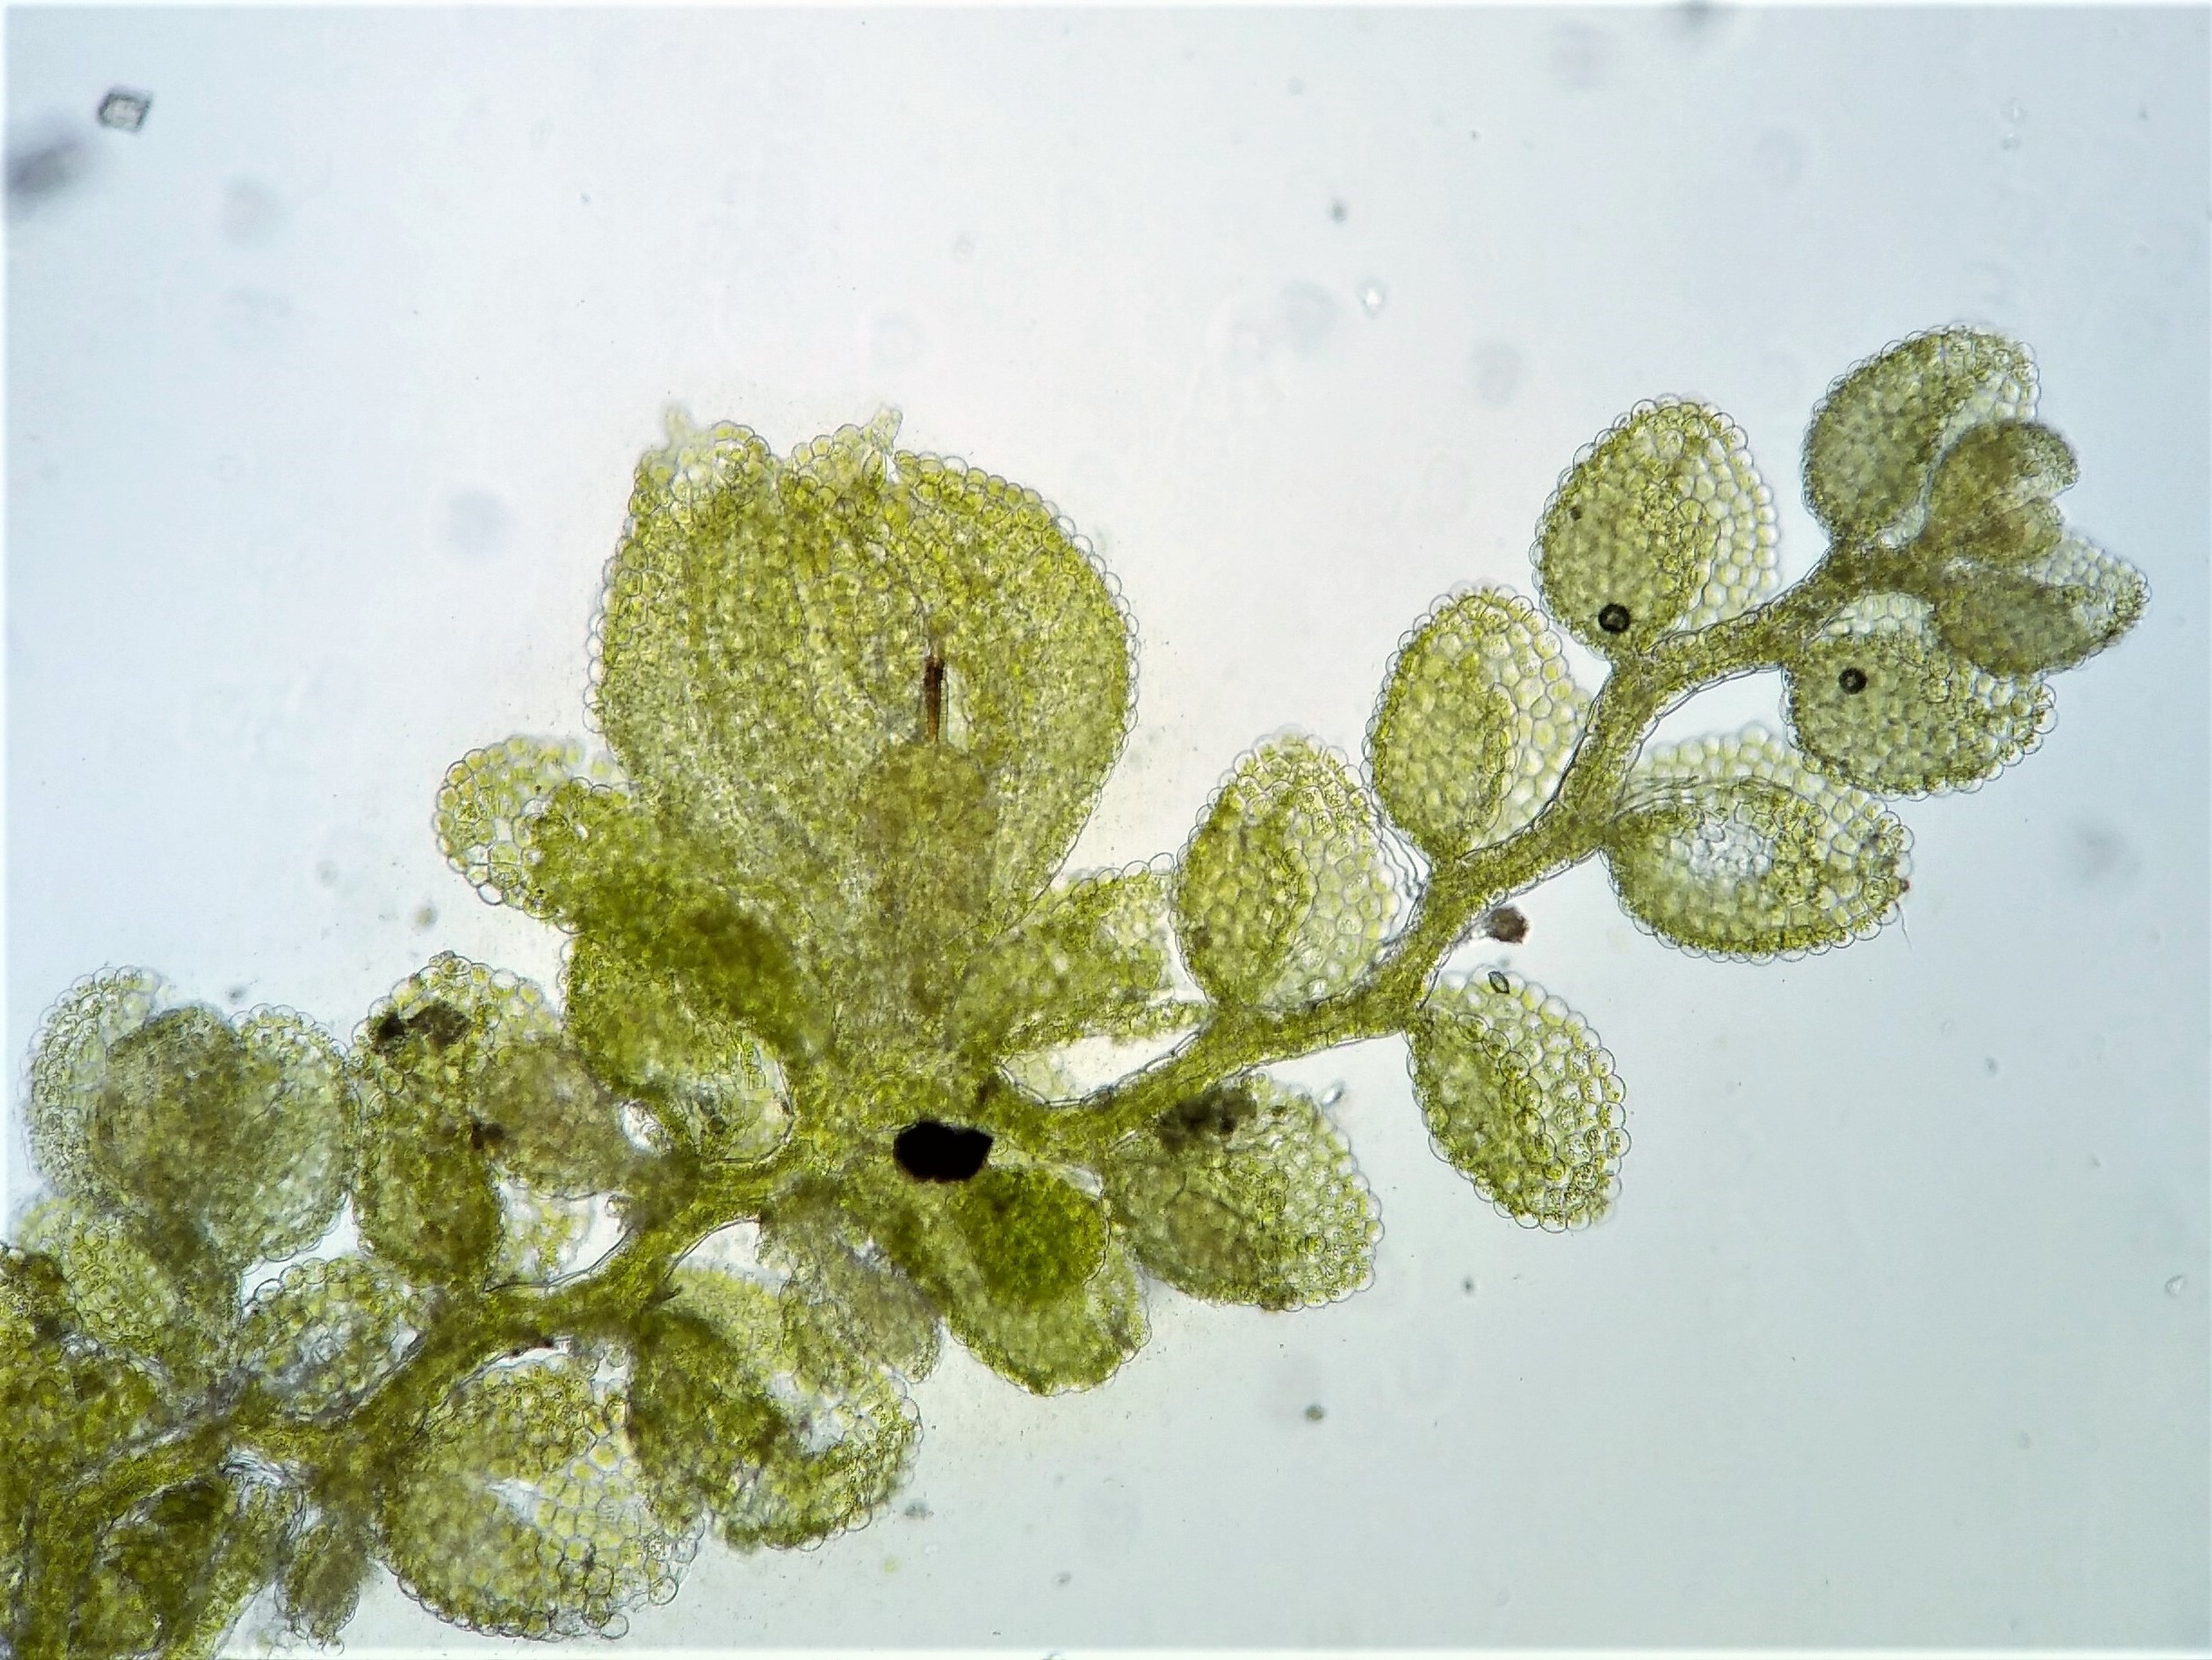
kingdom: Plantae
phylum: Marchantiophyta
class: Jungermanniopsida
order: Porellales
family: Lejeuneaceae
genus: Myriocoleopsis
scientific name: Myriocoleopsis minutissima
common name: Liden pungmos
